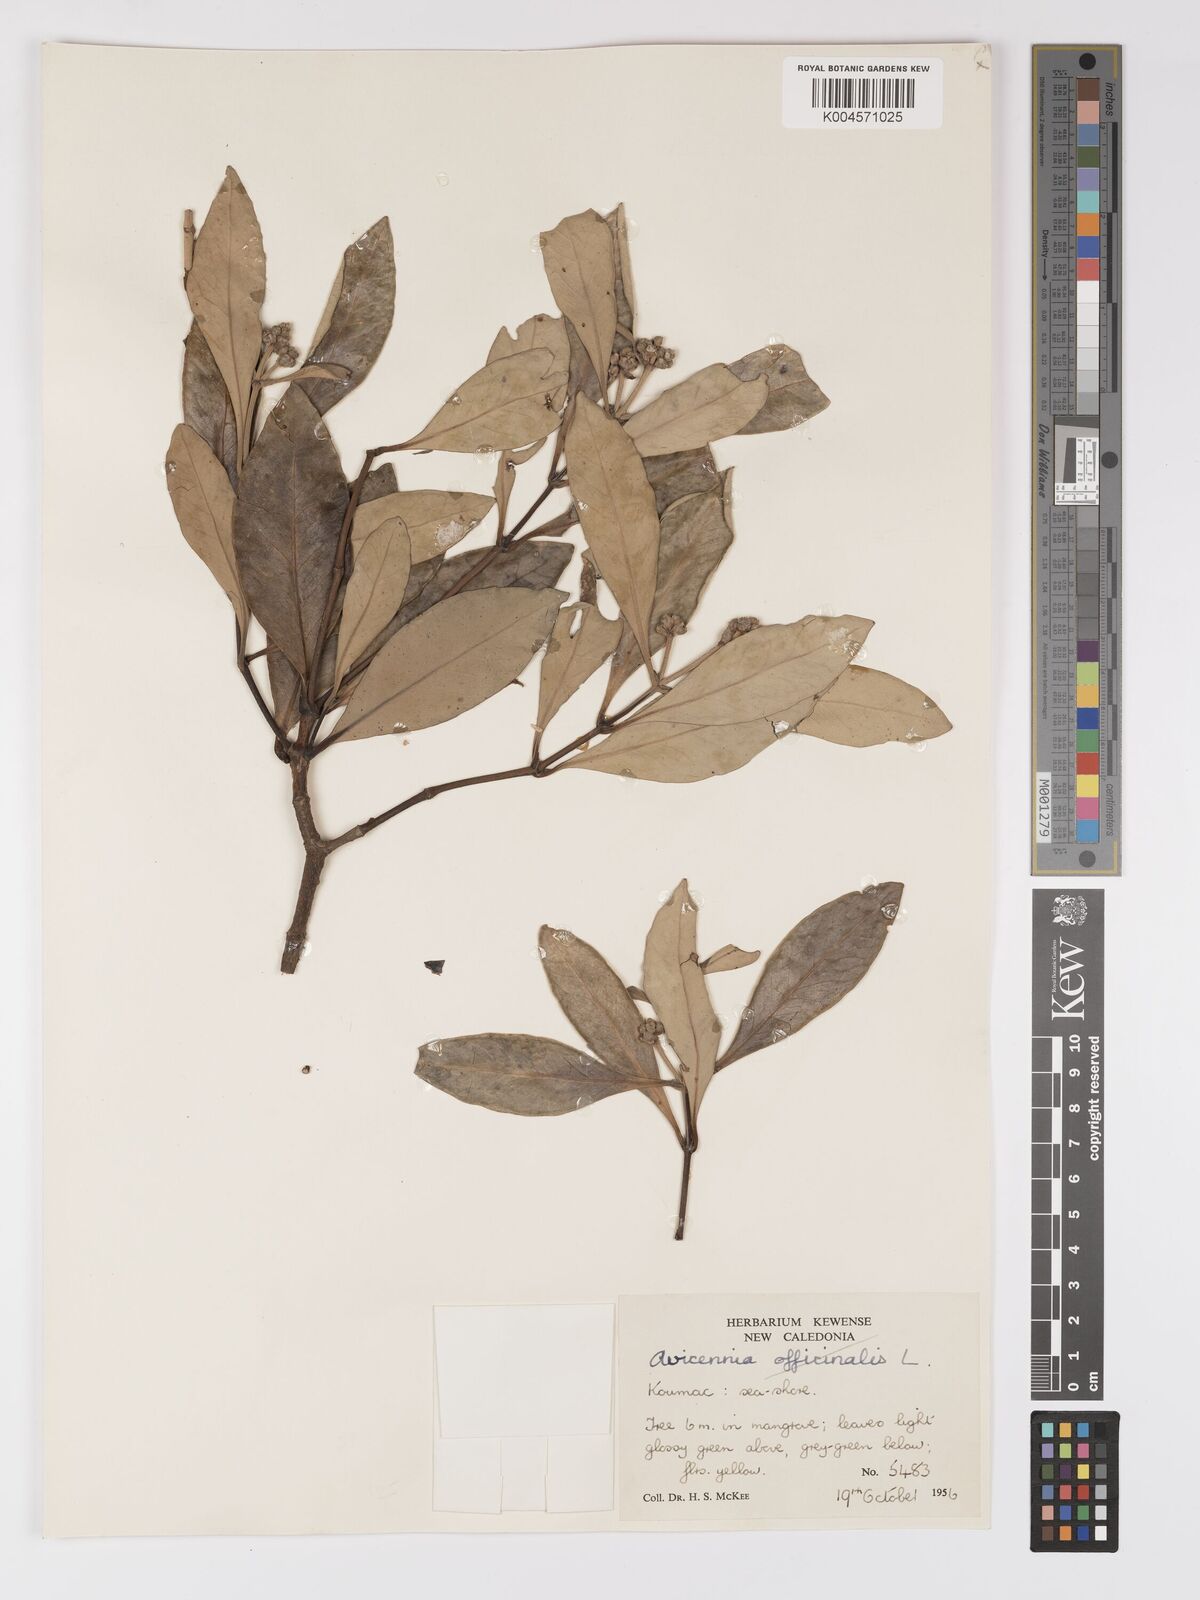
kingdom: Plantae
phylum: Tracheophyta
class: Magnoliopsida
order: Lamiales
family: Acanthaceae
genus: Avicennia
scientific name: Avicennia marina
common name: Gray mangrove
